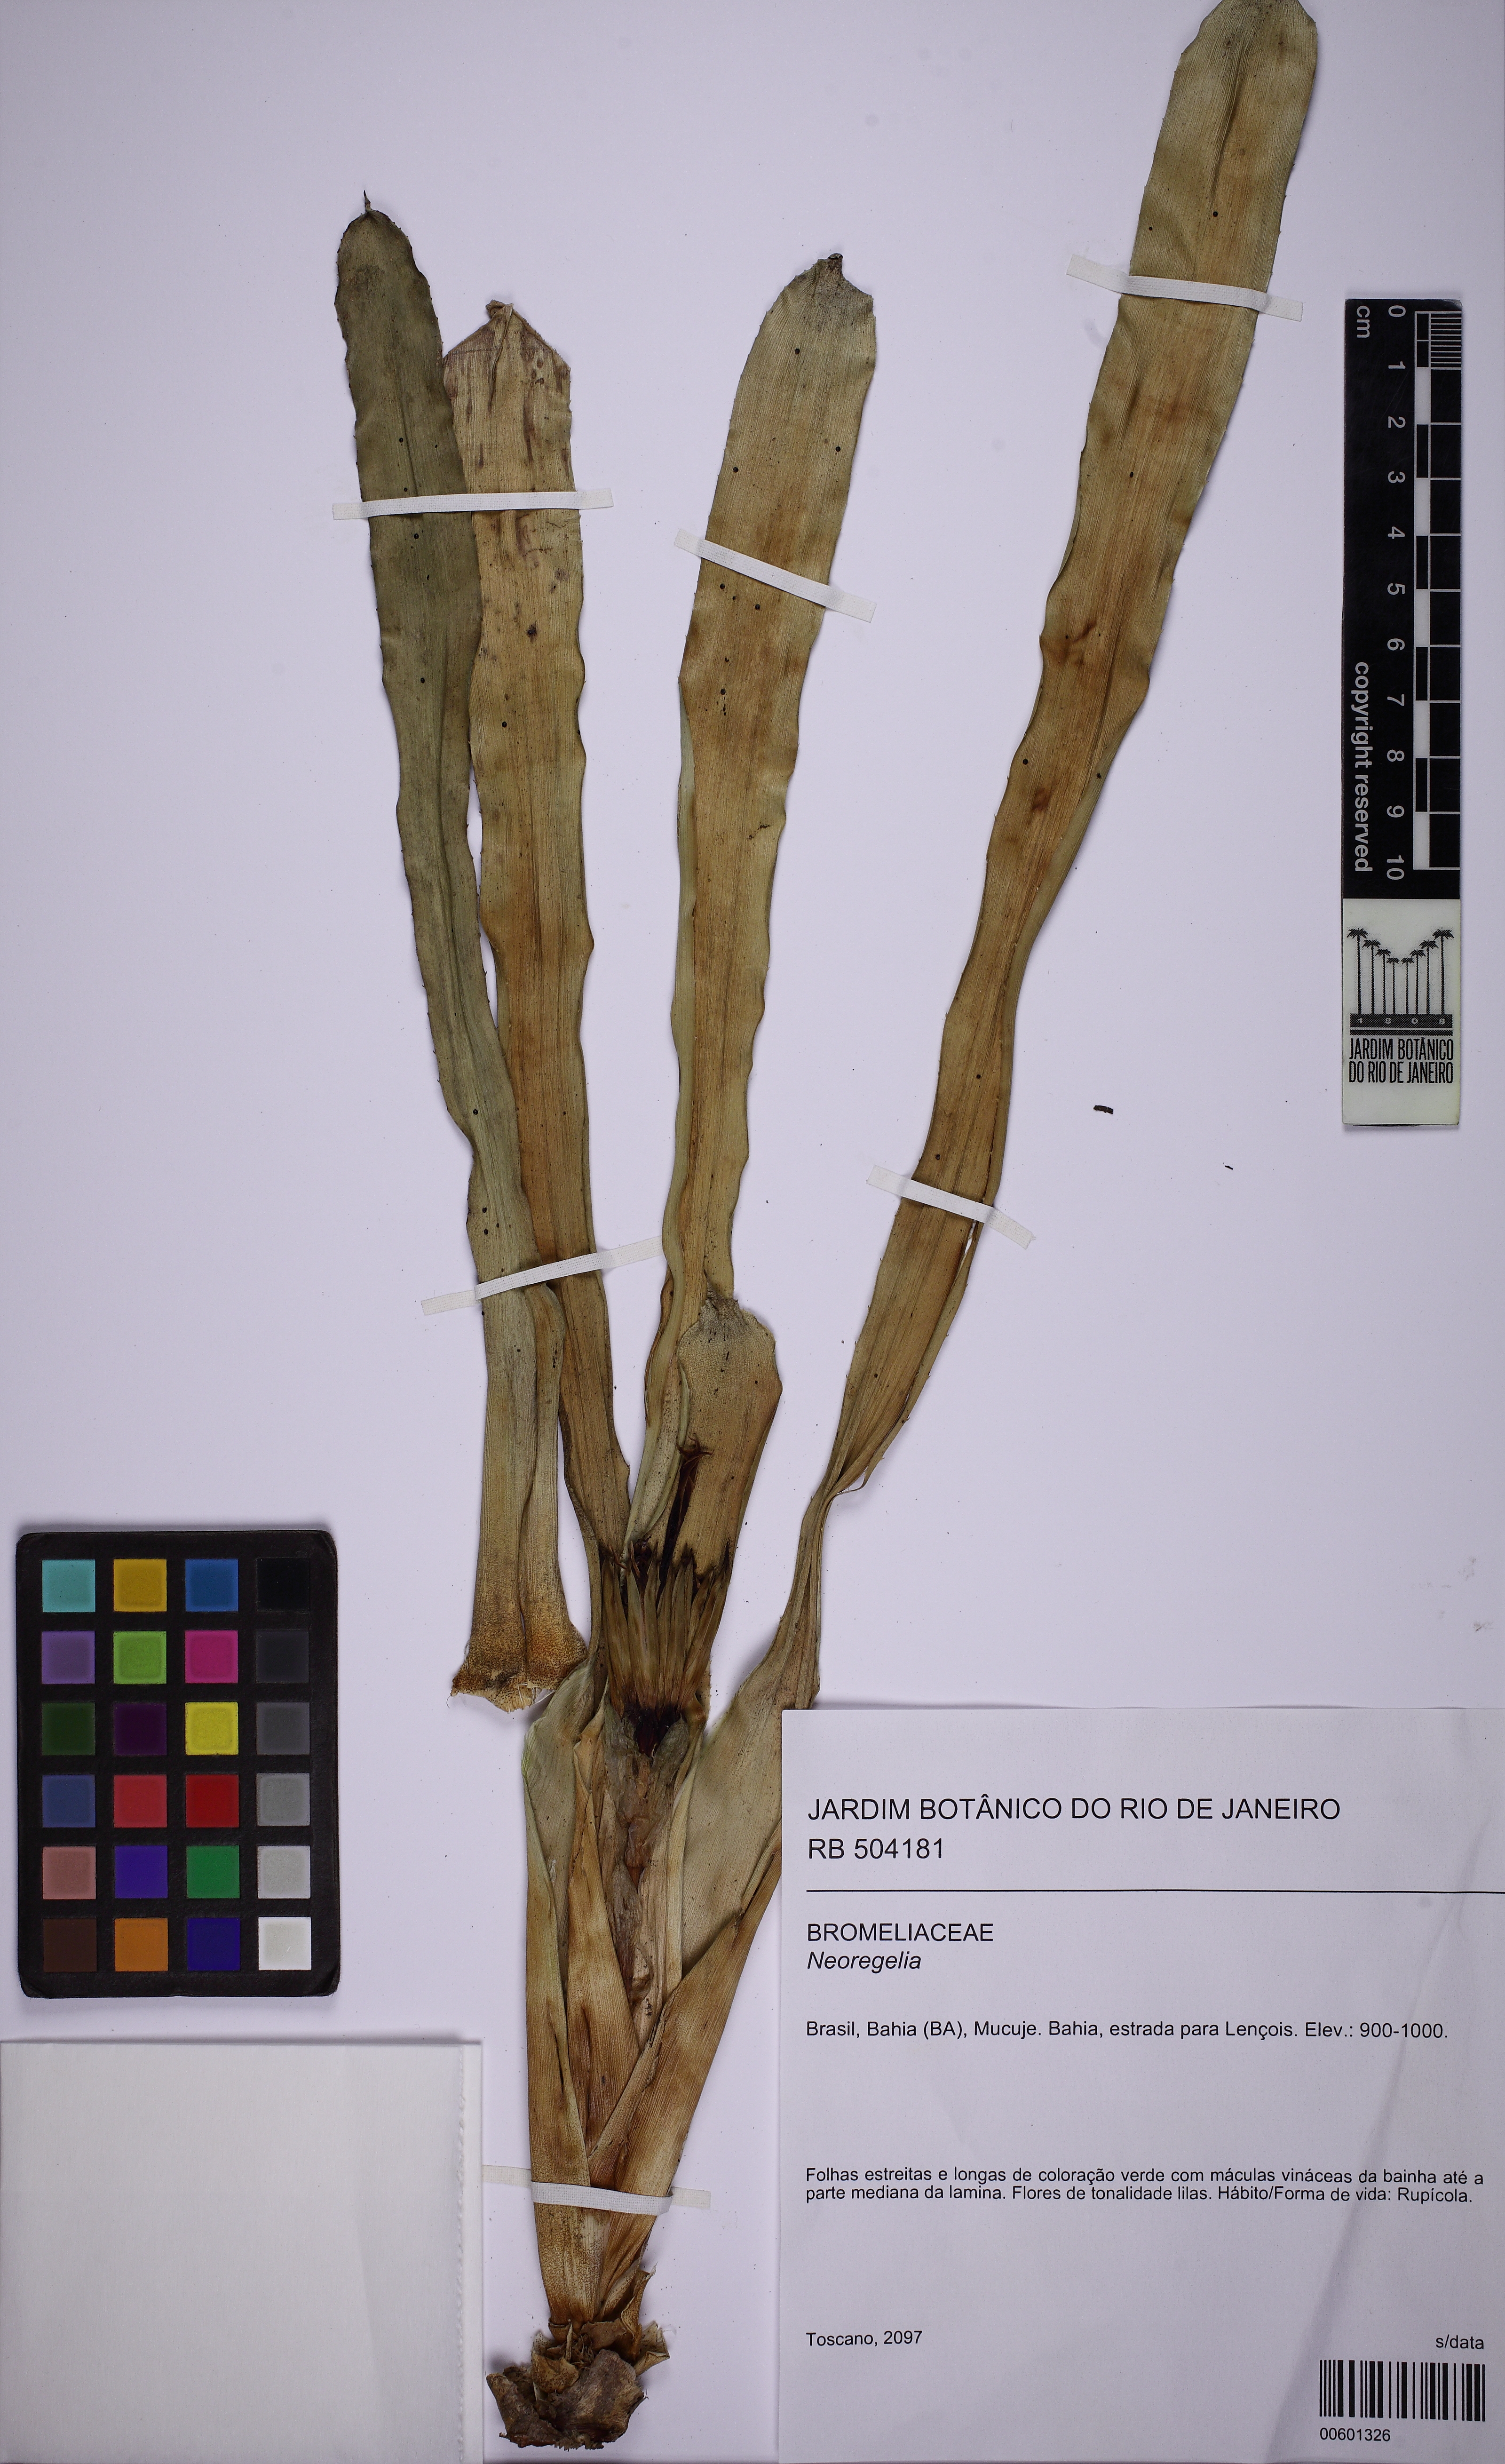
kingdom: Plantae
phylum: Tracheophyta
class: Liliopsida
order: Poales
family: Bromeliaceae
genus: Neoregelia
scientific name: Neoregelia mucugensis
